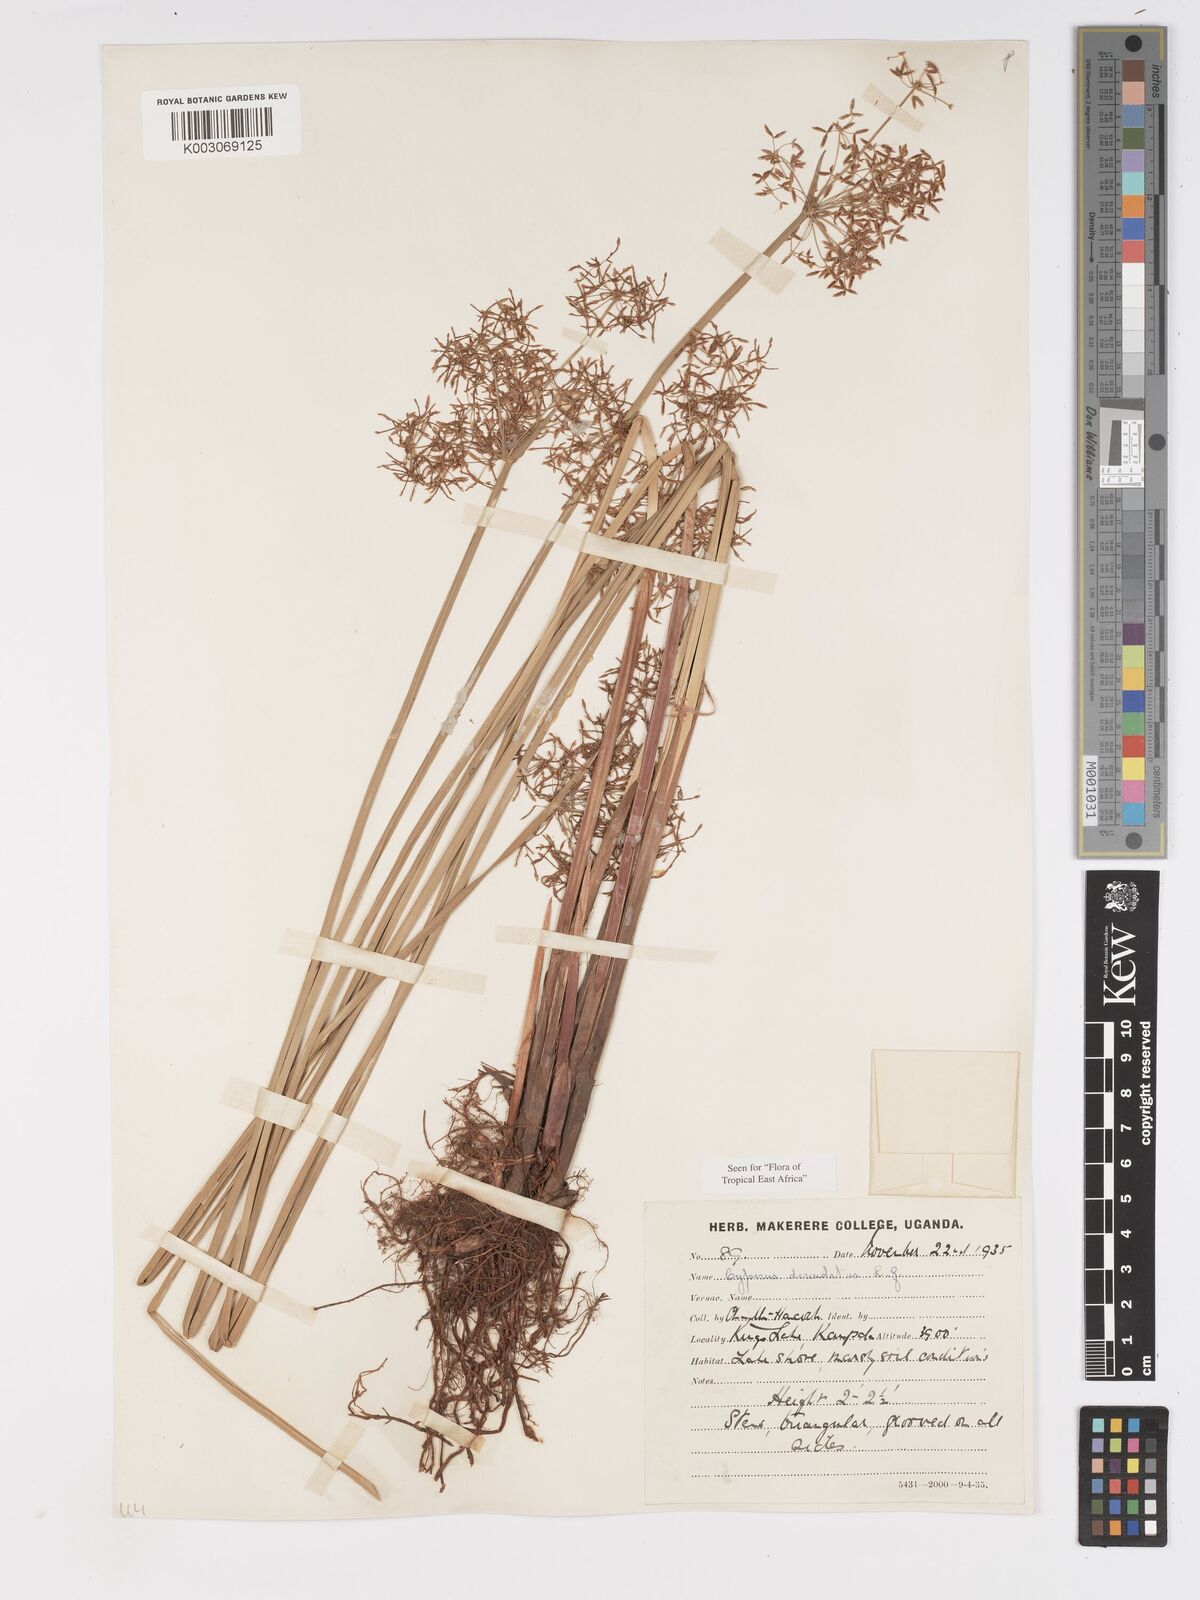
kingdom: Plantae
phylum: Tracheophyta
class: Liliopsida
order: Poales
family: Cyperaceae
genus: Cyperus
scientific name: Cyperus platycaulis
